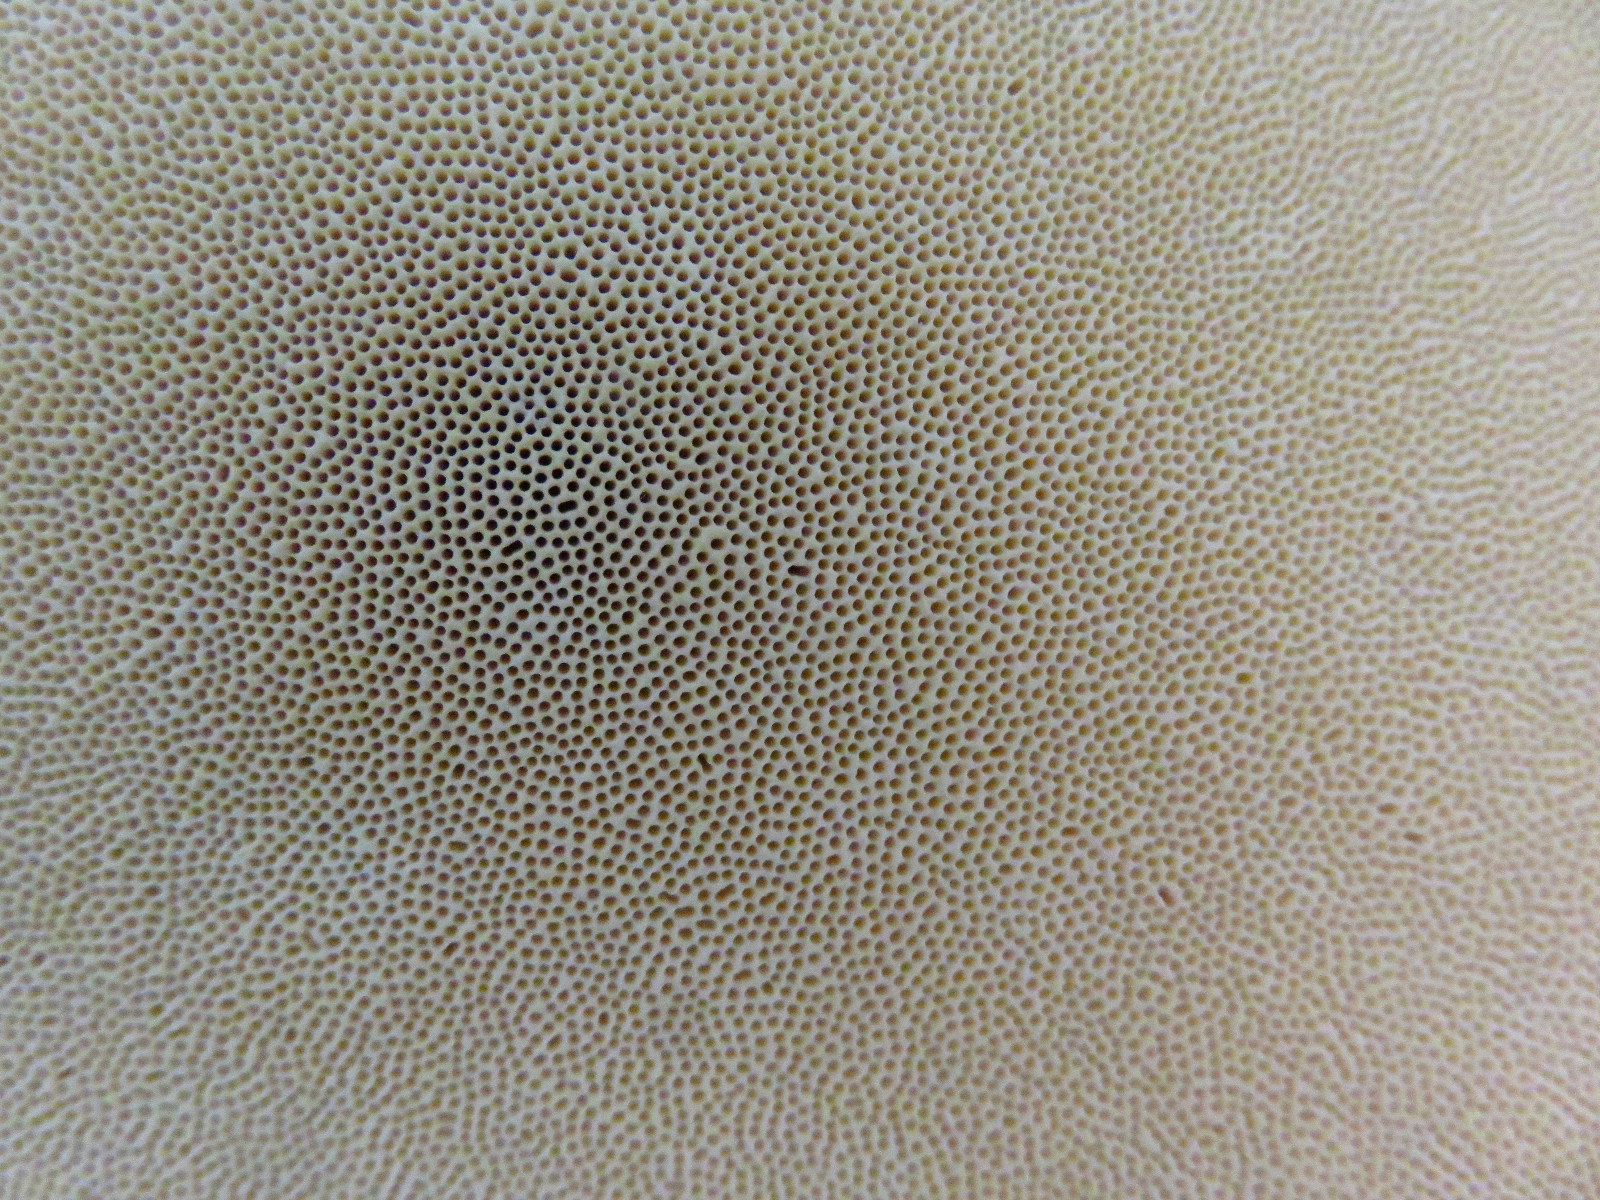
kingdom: Fungi
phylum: Basidiomycota
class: Agaricomycetes
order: Polyporales
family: Fomitopsidaceae
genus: Fomitopsis
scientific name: Fomitopsis pinicola
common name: randbæltet hovporesvamp
